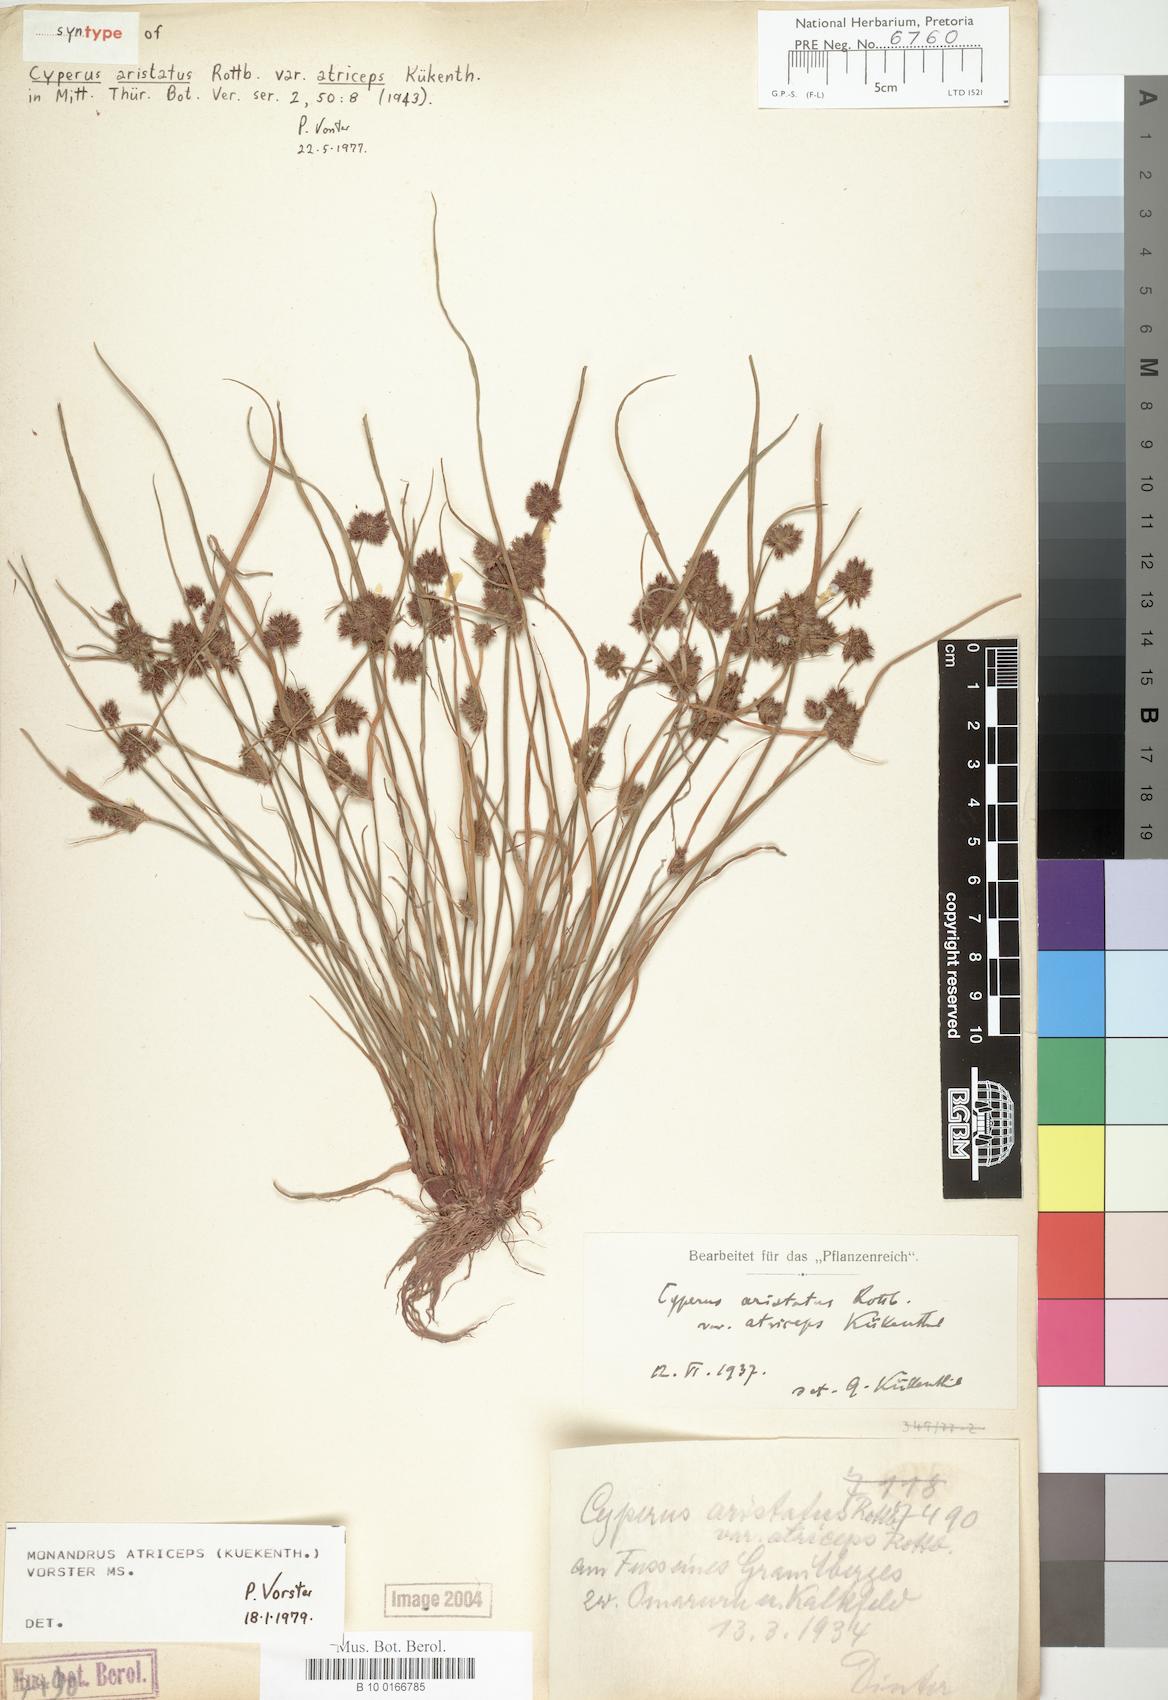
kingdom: Plantae
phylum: Tracheophyta
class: Liliopsida
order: Poales
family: Cyperaceae
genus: Cyperus
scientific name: Cyperus atriceps
